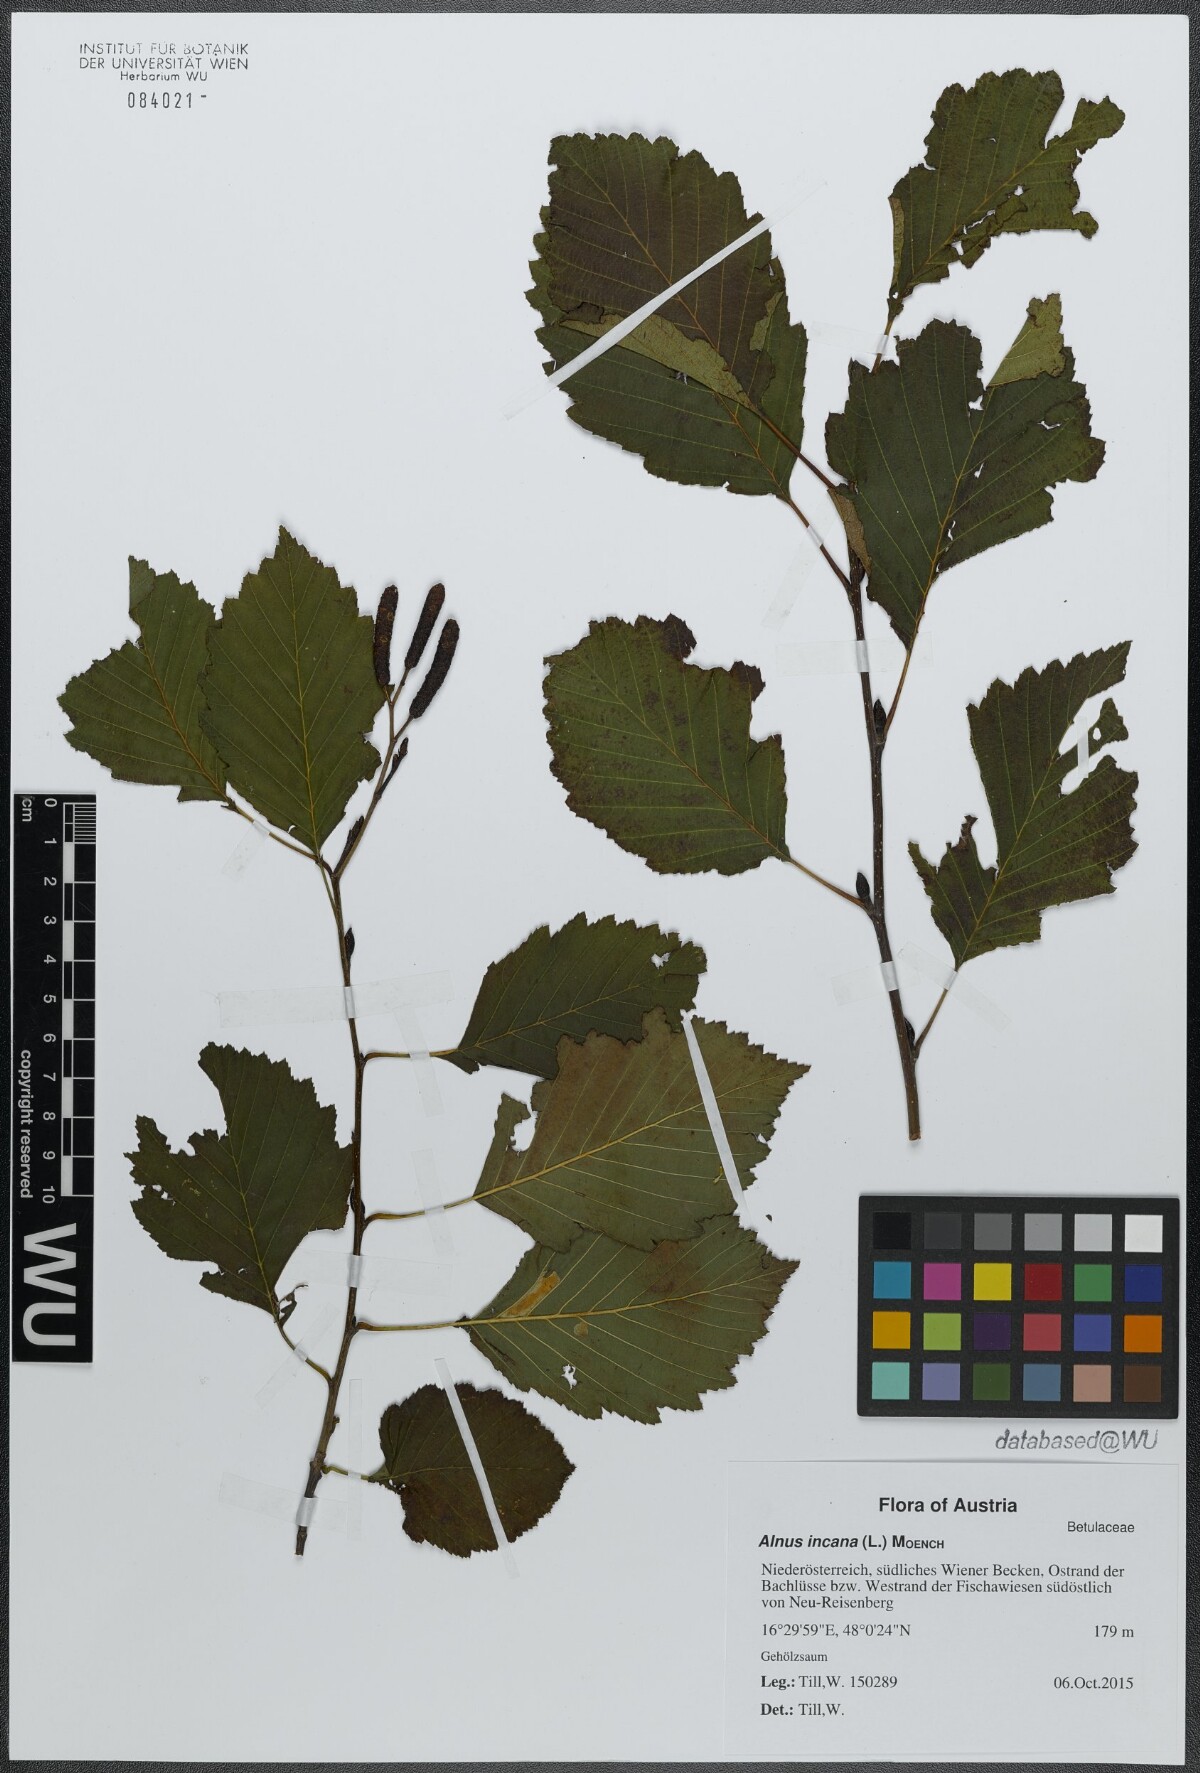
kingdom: Plantae
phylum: Tracheophyta
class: Magnoliopsida
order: Fagales
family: Betulaceae
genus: Alnus
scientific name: Alnus incana
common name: Grey alder
